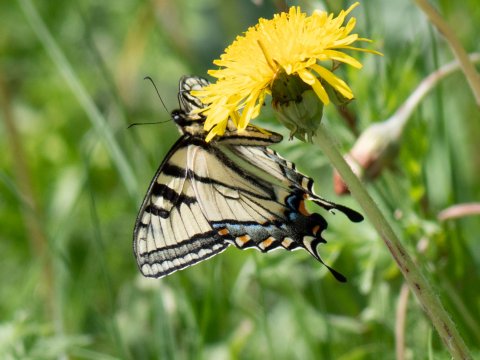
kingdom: Animalia
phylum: Arthropoda
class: Insecta
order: Lepidoptera
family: Papilionidae
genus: Pterourus
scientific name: Pterourus canadensis
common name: Canadian Tiger Swallowtail
